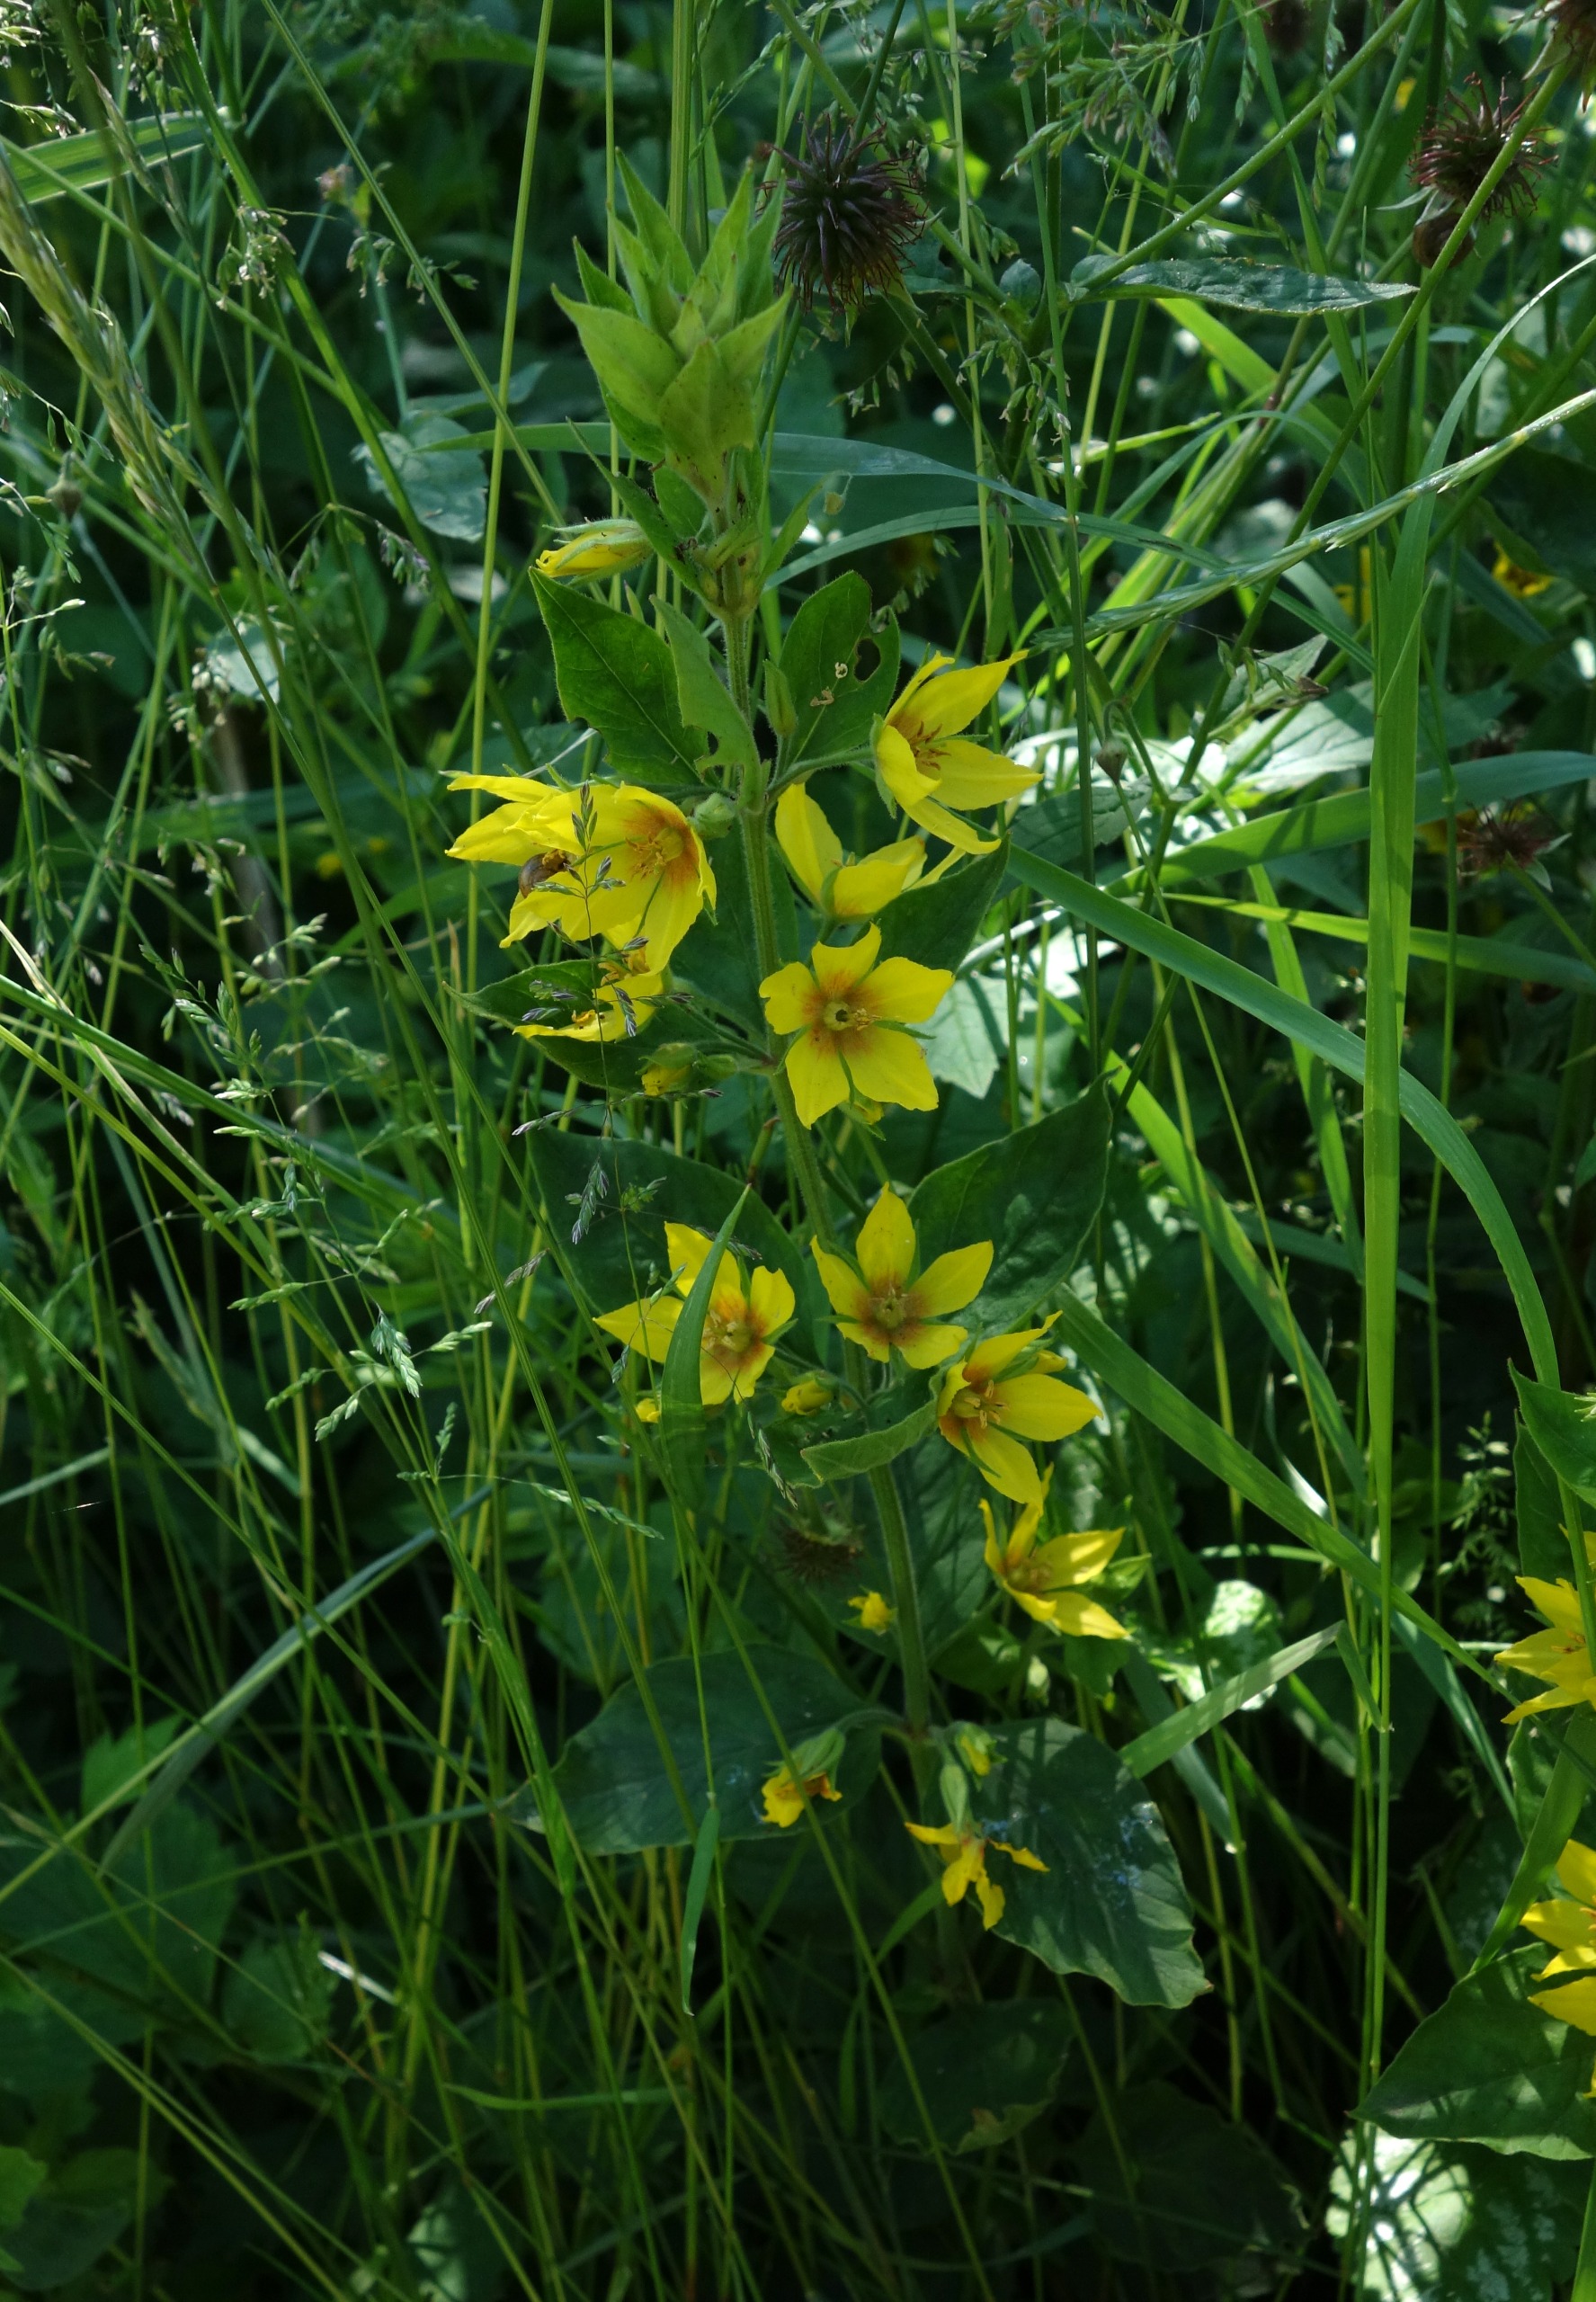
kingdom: Plantae
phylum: Tracheophyta
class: Magnoliopsida
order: Ericales
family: Primulaceae
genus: Lysimachia
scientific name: Lysimachia punctata
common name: Prikbladet fredløs
